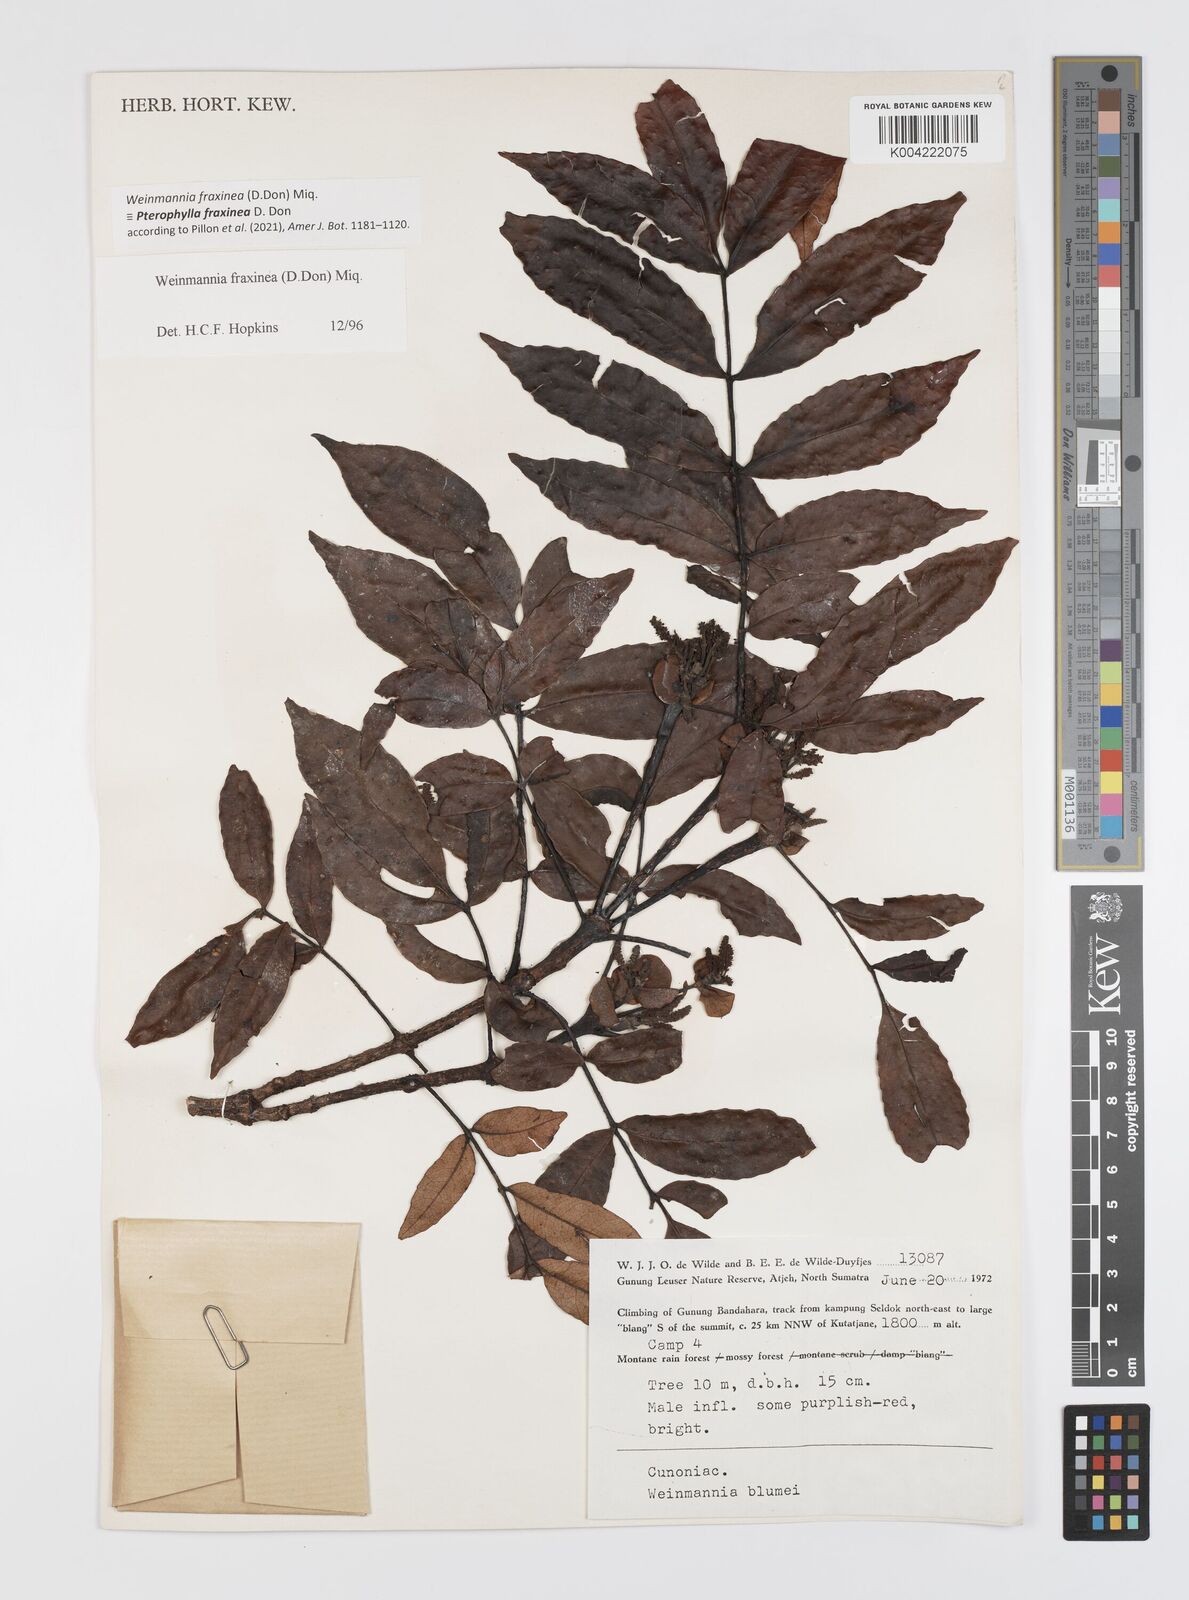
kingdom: Plantae
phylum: Tracheophyta
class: Magnoliopsida
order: Oxalidales
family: Cunoniaceae
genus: Pterophylla
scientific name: Pterophylla fraxinea
